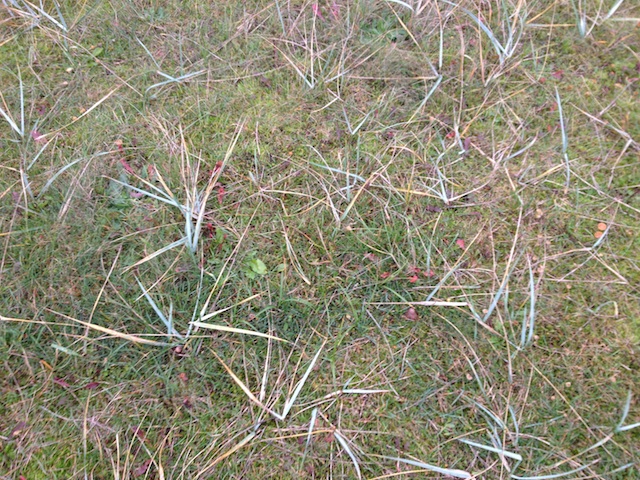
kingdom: Fungi
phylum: Basidiomycota
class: Agaricomycetes
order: Geastrales
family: Geastraceae
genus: Geastrum
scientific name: Geastrum striatum
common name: dværg-stjernebold
